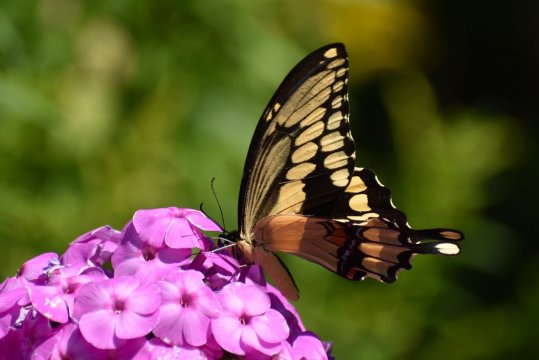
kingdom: Animalia
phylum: Arthropoda
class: Insecta
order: Lepidoptera
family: Papilionidae
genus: Papilio
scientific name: Papilio cresphontes
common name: Eastern Giant Swallowtail
